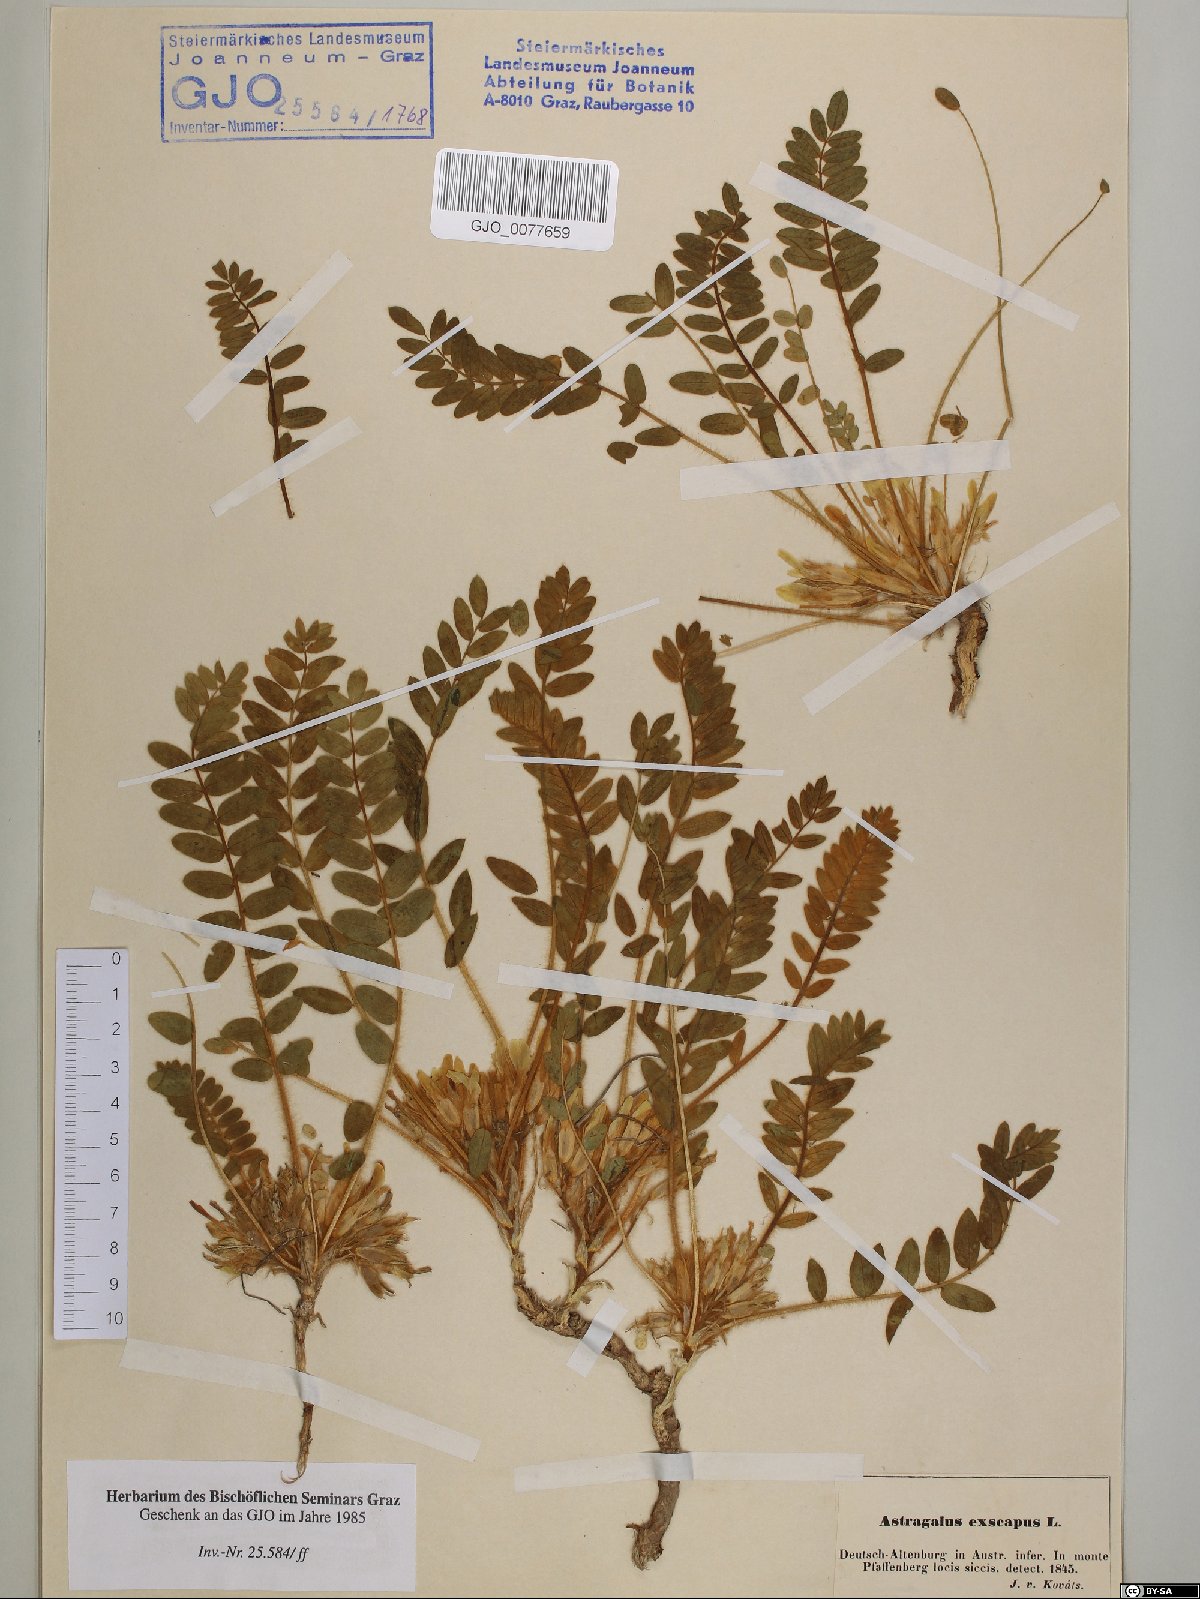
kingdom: Plantae
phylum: Tracheophyta
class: Magnoliopsida
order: Fabales
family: Fabaceae
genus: Astragalus
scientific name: Astragalus exscapus
